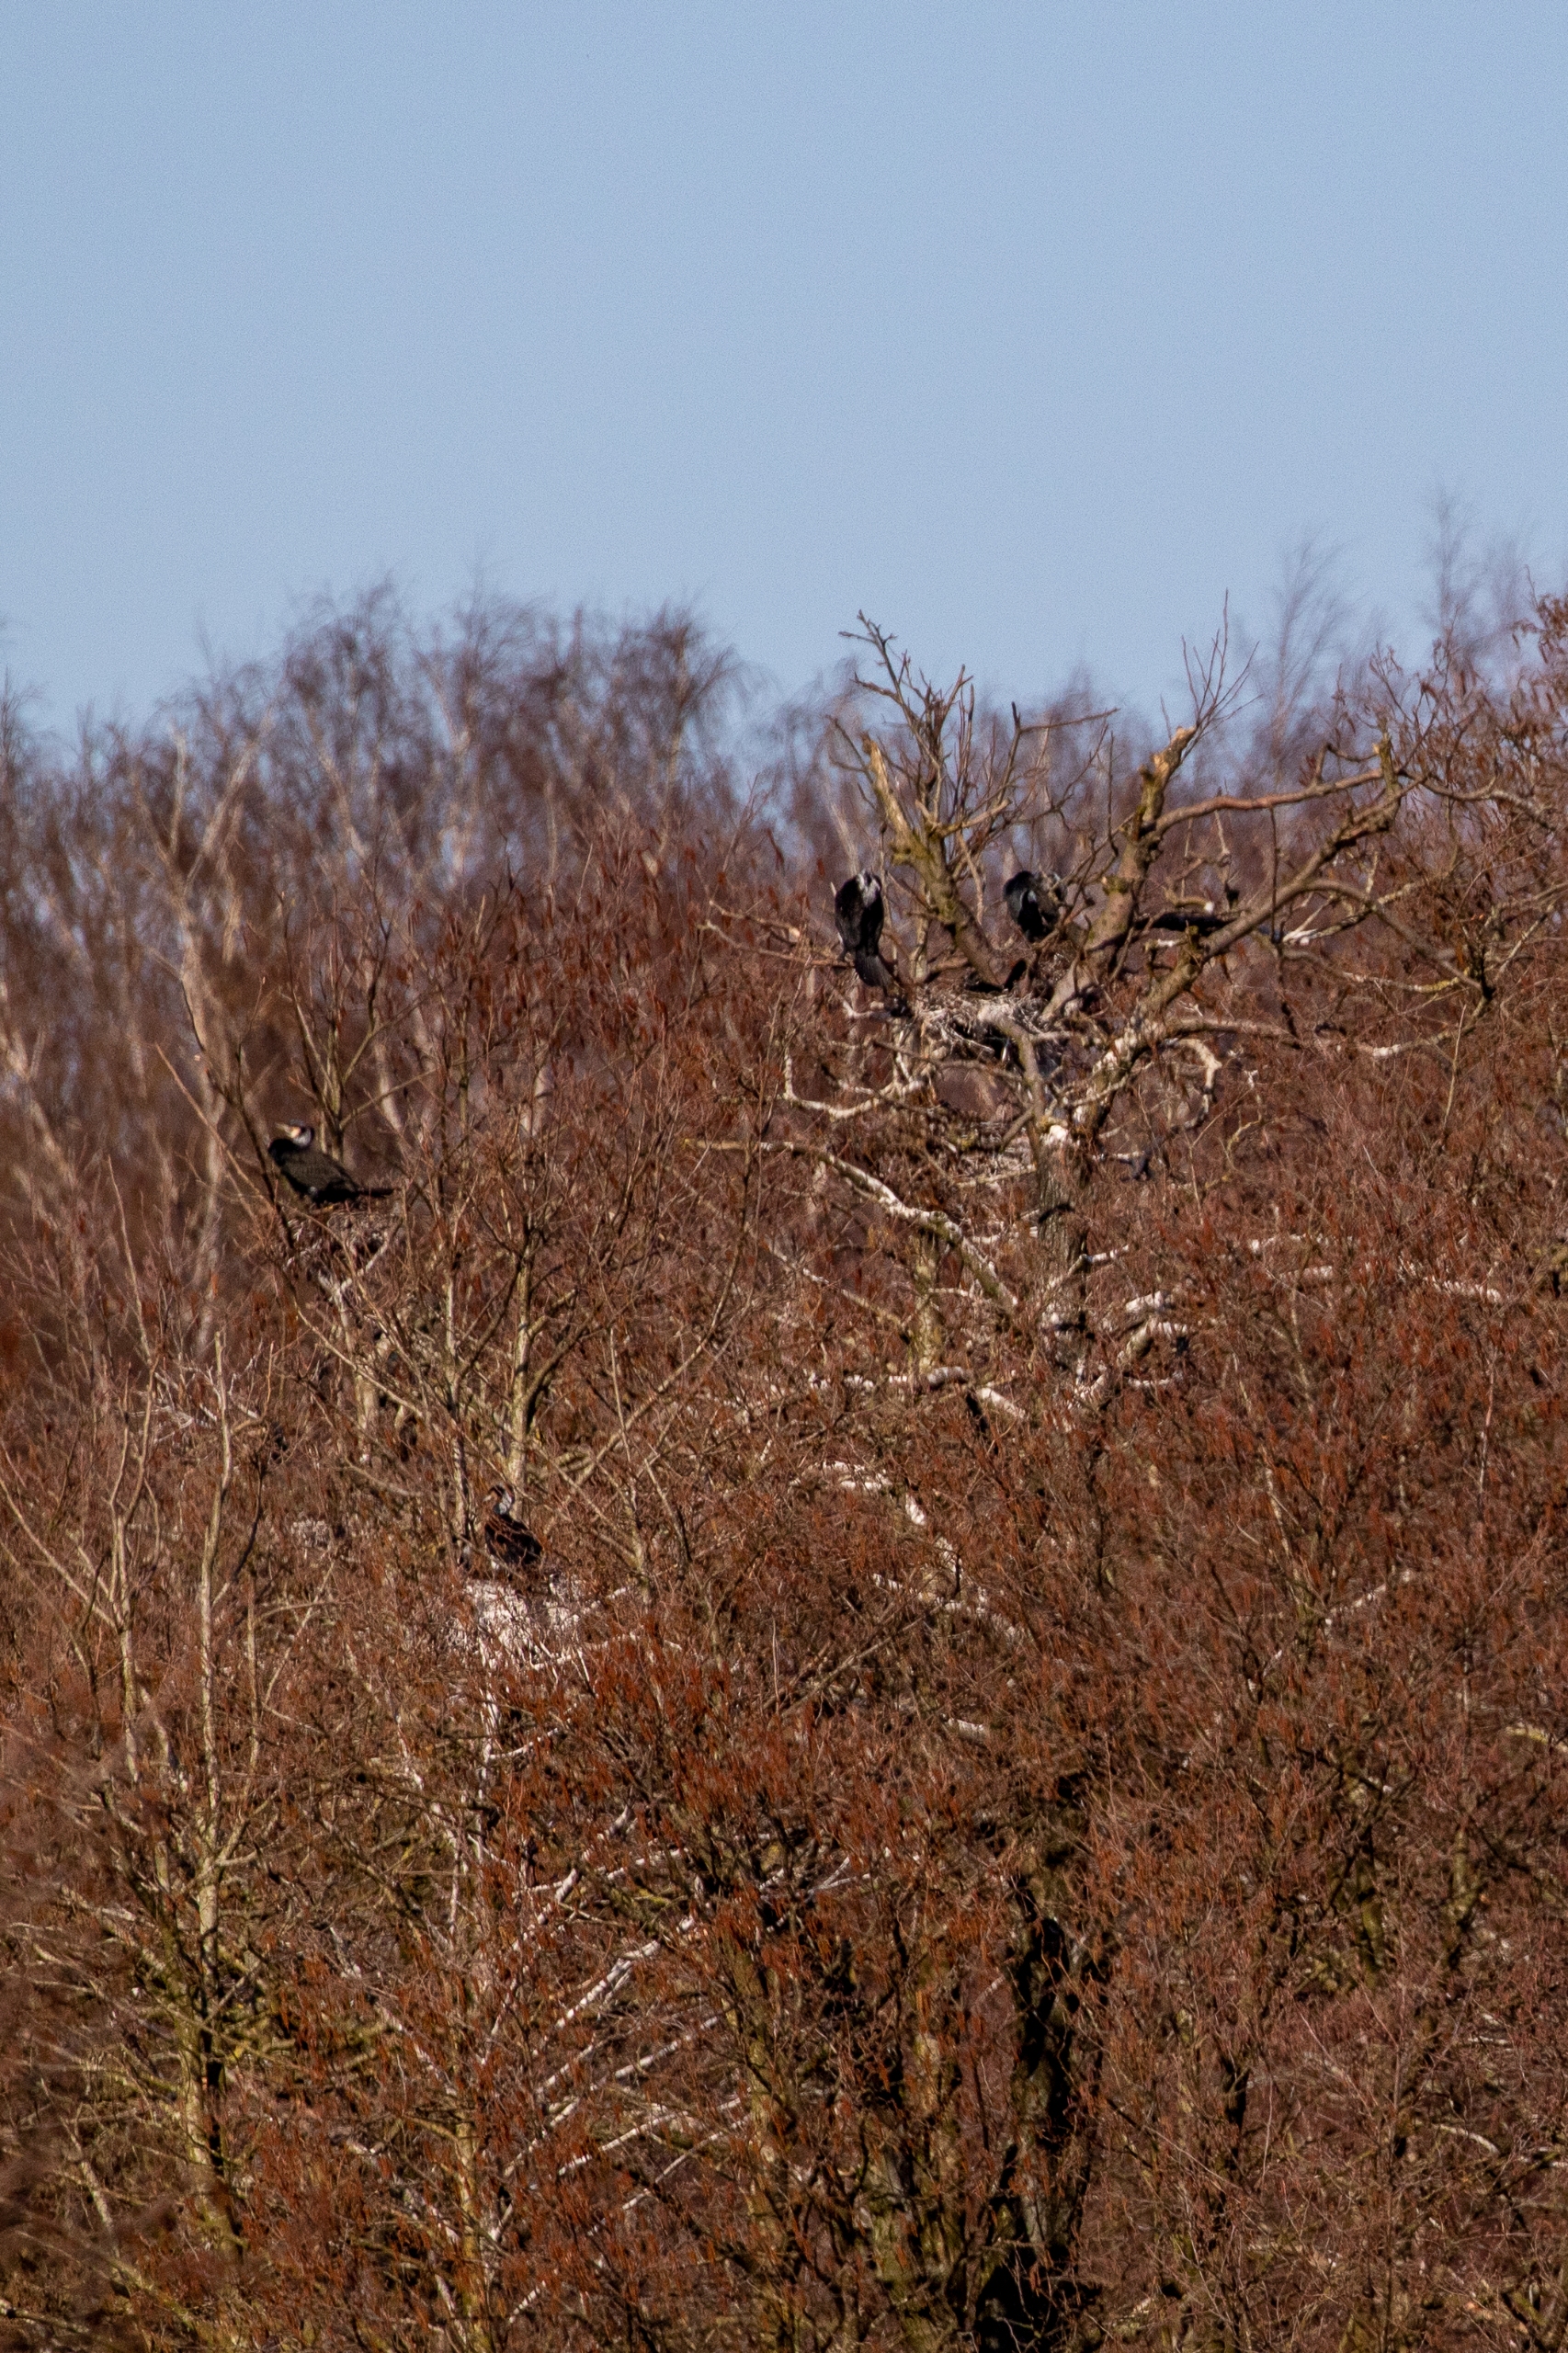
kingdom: Animalia
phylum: Chordata
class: Aves
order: Suliformes
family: Phalacrocoracidae
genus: Phalacrocorax
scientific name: Phalacrocorax carbo
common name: Skarv
